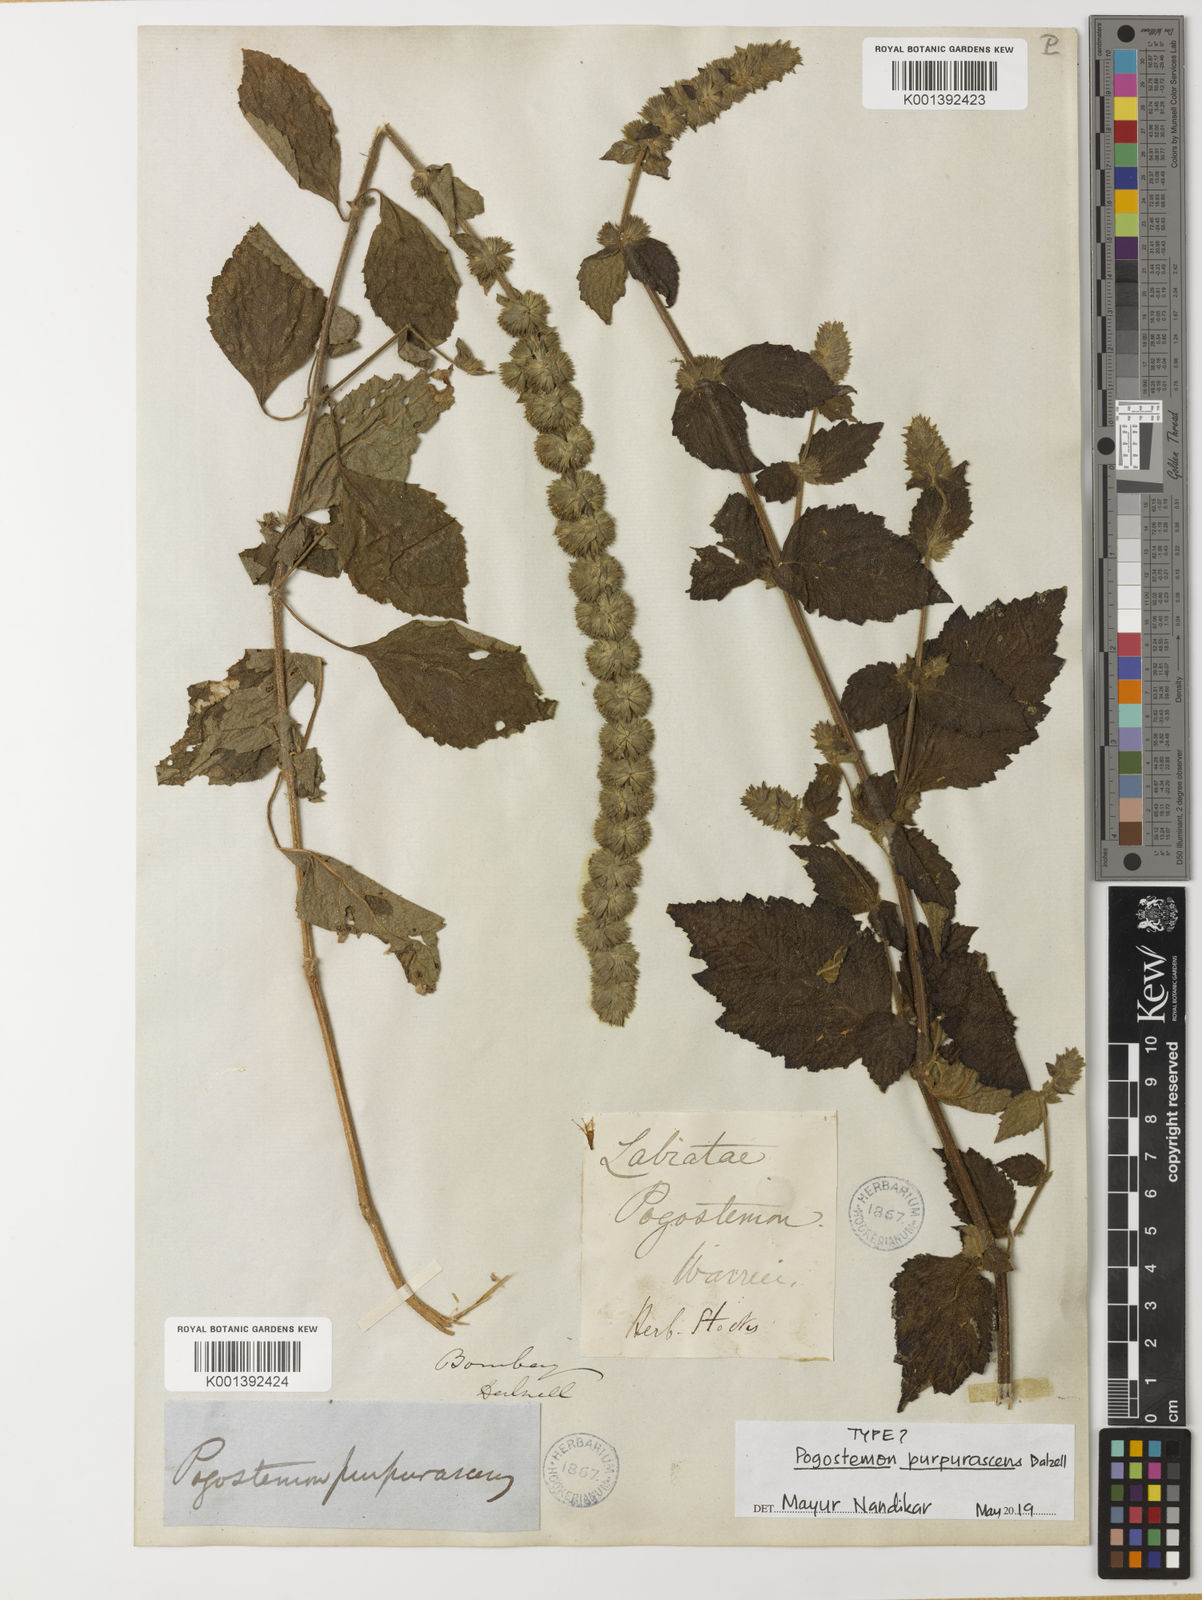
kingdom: Plantae
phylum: Tracheophyta
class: Magnoliopsida
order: Lamiales
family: Lamiaceae
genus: Pogostemon
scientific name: Pogostemon purpurascens
